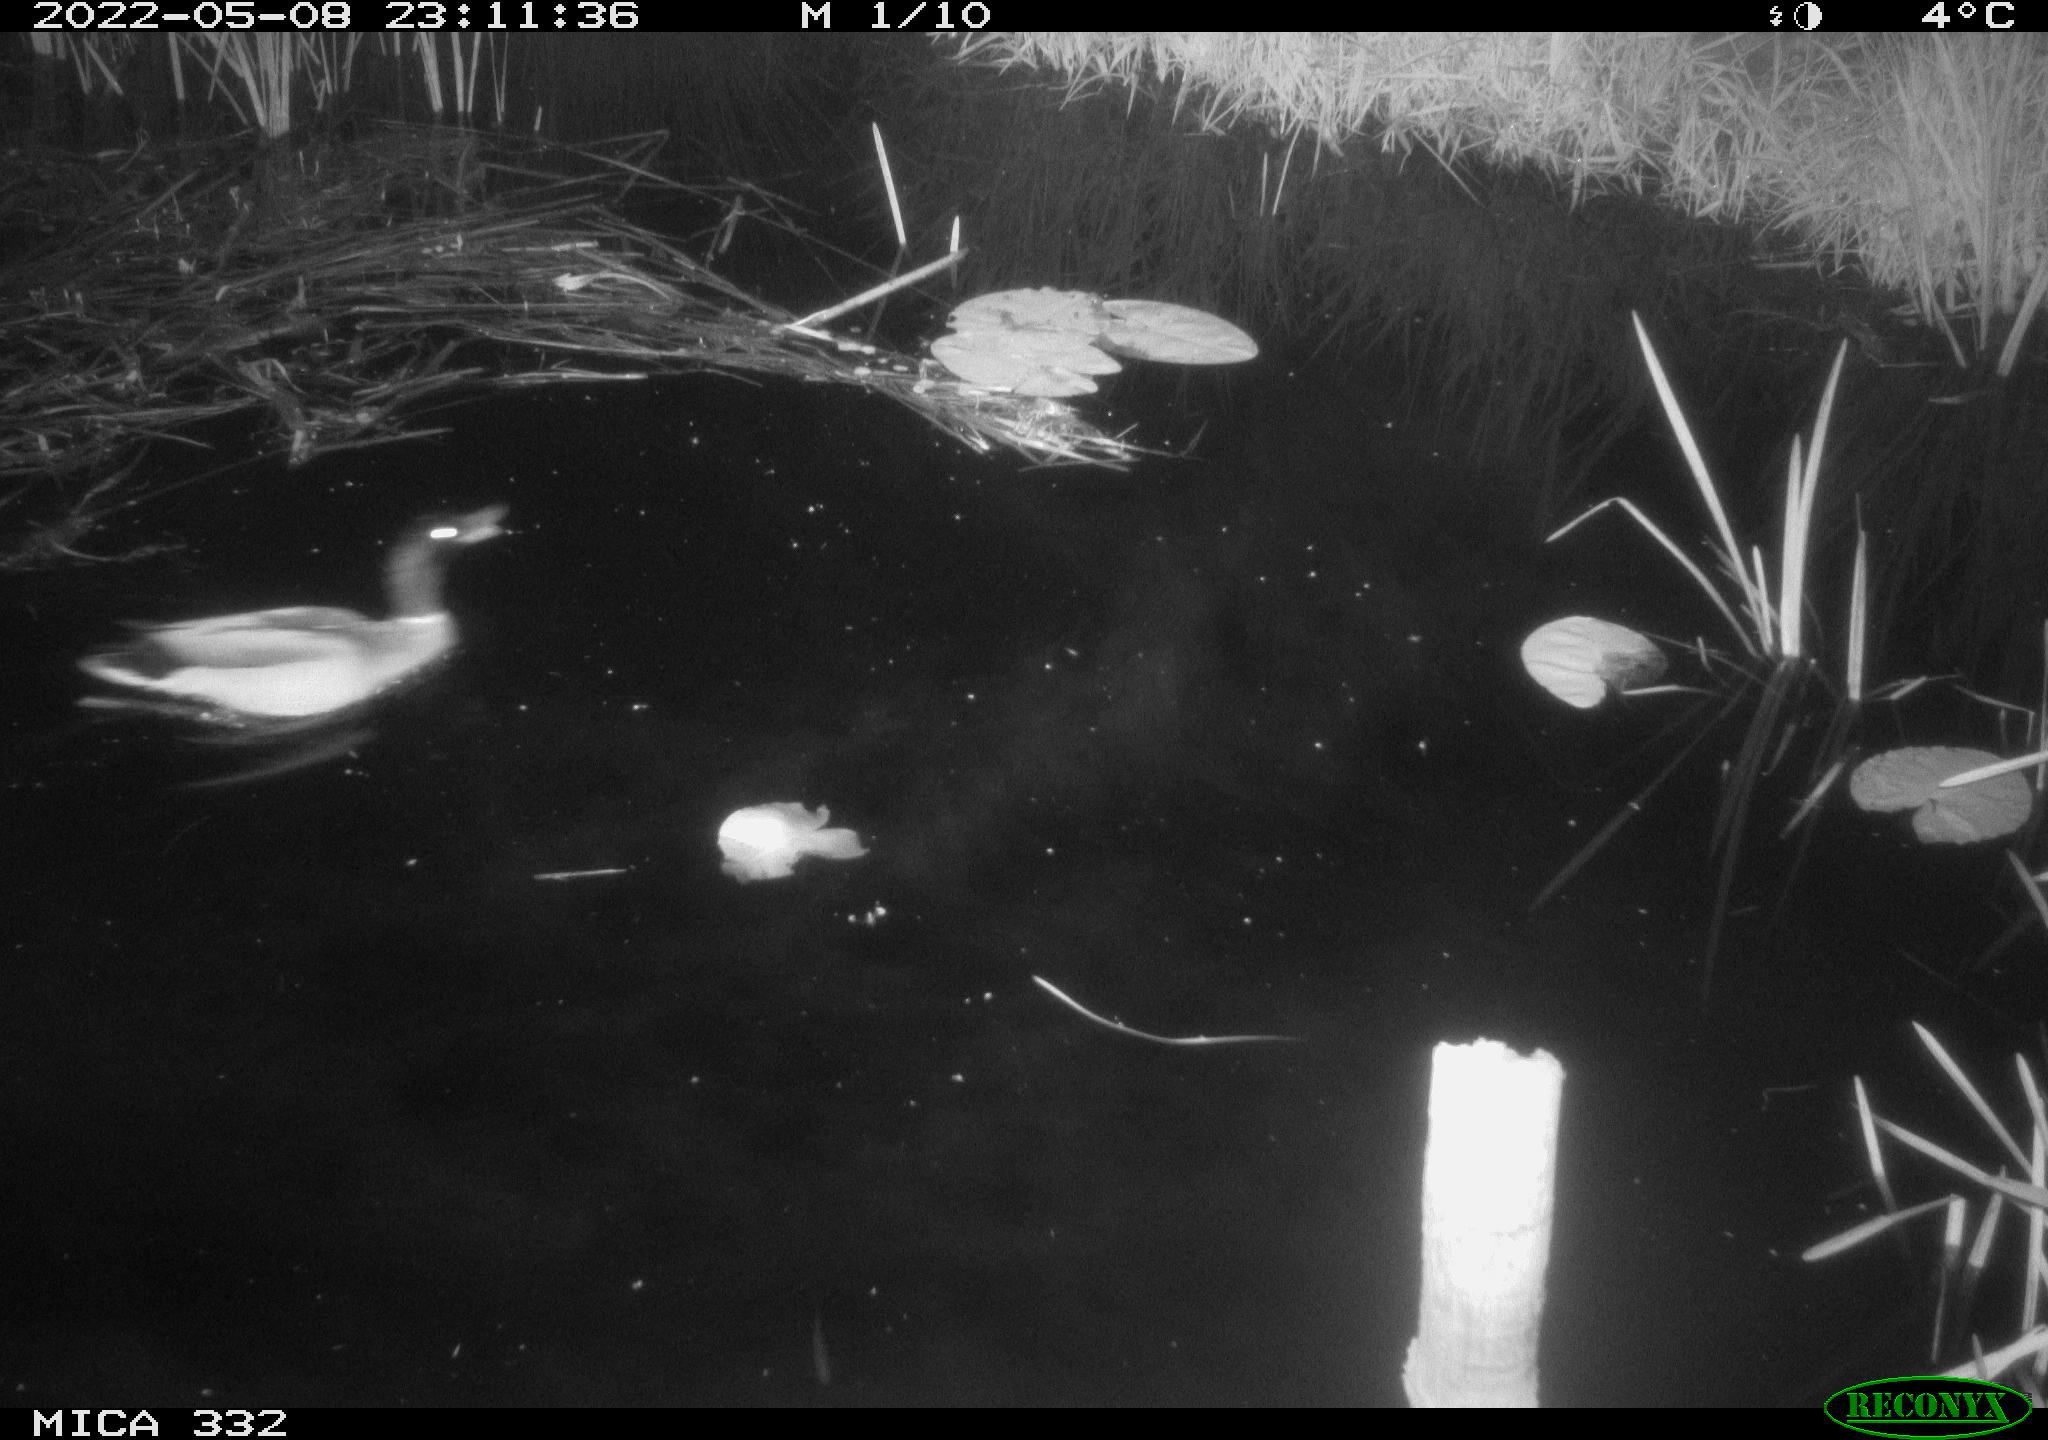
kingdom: Animalia
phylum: Chordata
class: Aves
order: Anseriformes
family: Anatidae
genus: Anas
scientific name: Anas platyrhynchos
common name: Mallard
